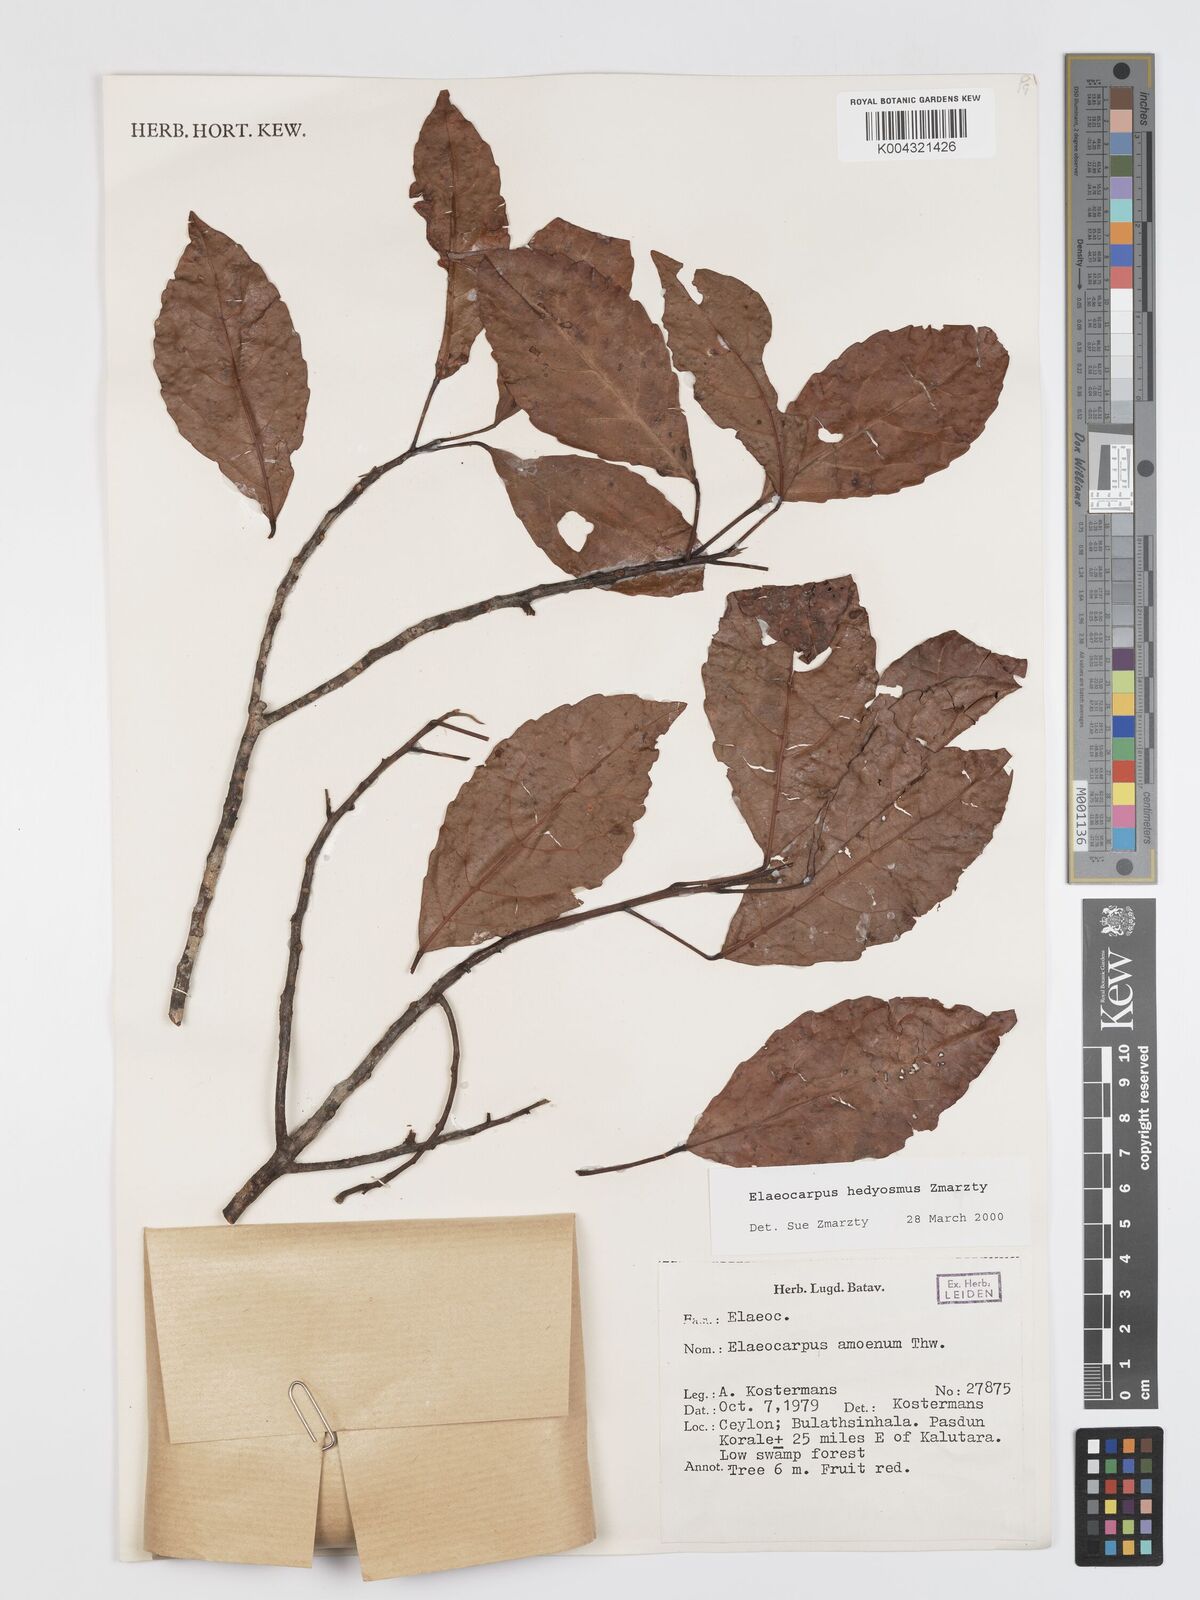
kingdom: Plantae
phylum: Tracheophyta
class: Magnoliopsida
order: Oxalidales
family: Elaeocarpaceae
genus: Elaeocarpus
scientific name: Elaeocarpus hedyosmus
